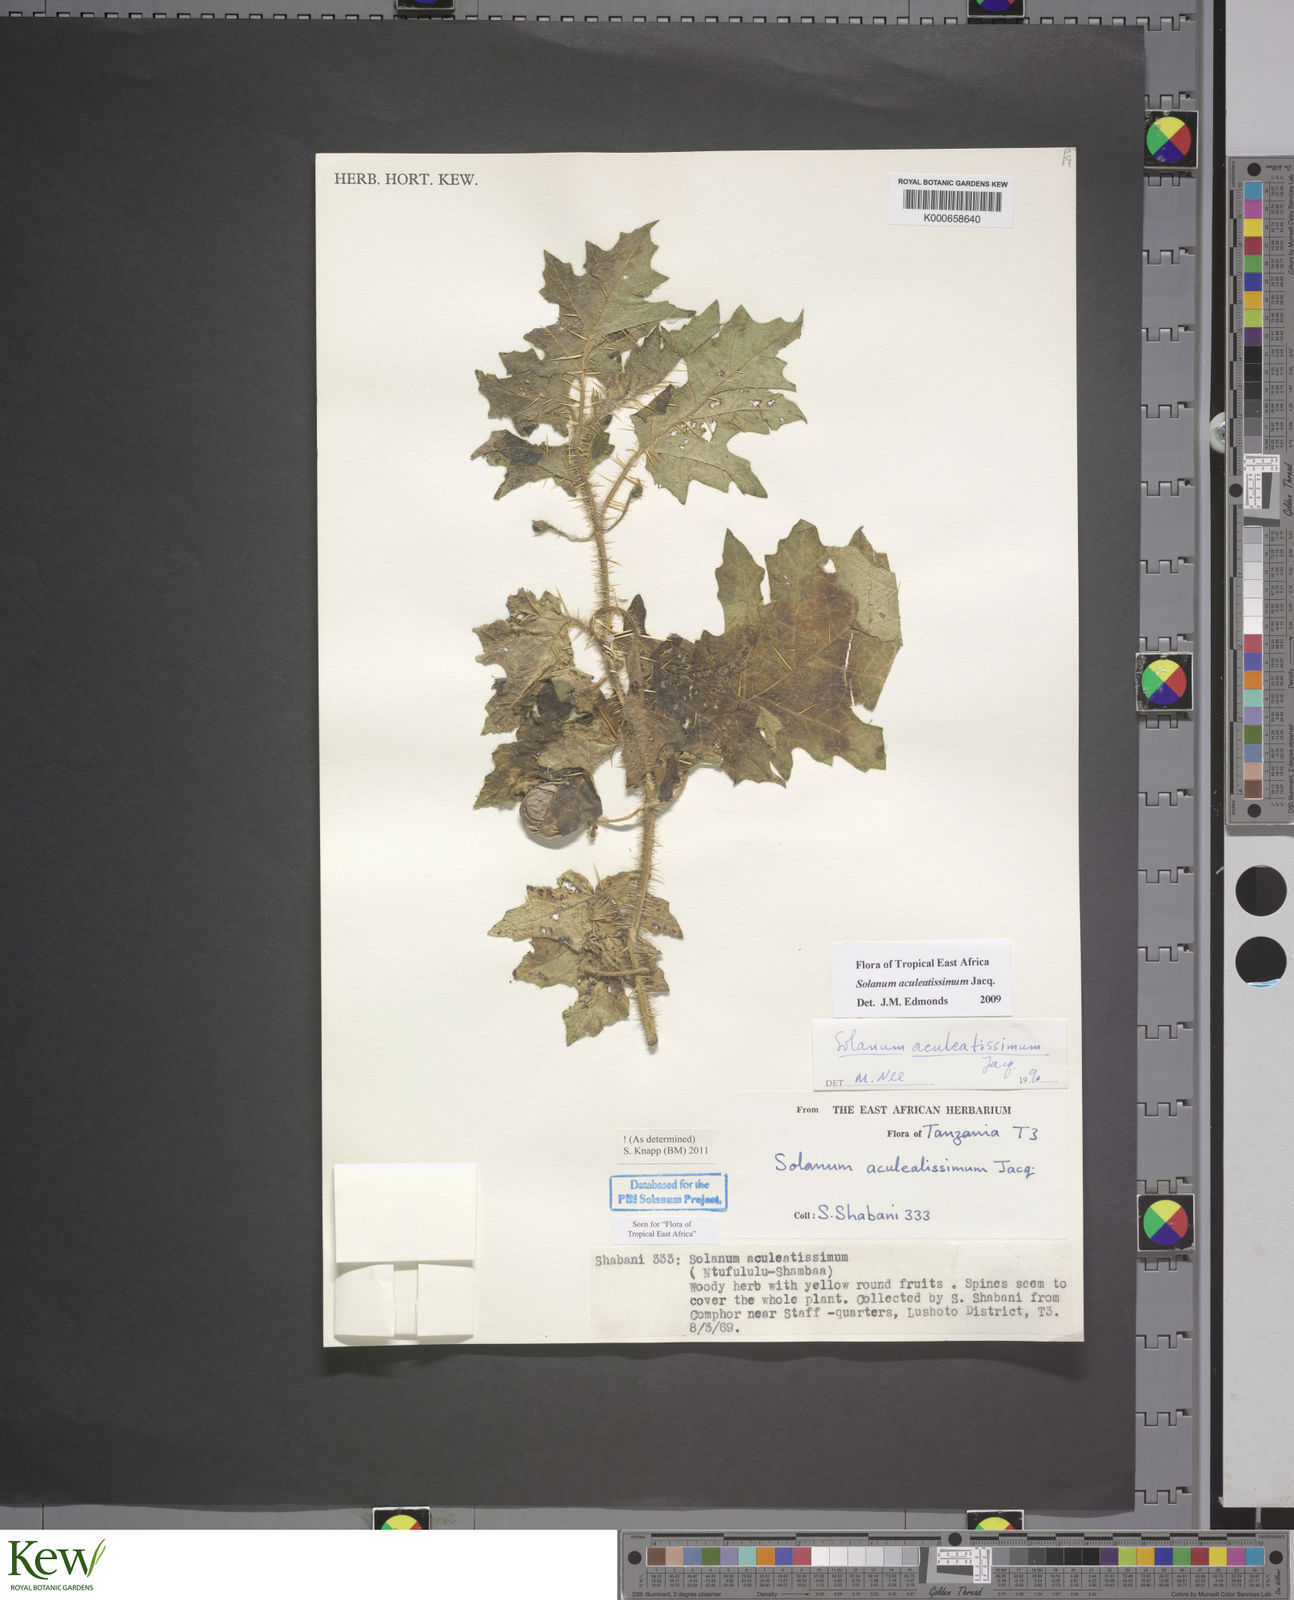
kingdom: Plantae
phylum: Tracheophyta
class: Magnoliopsida
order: Solanales
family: Solanaceae
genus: Solanum
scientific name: Solanum aculeatissimum
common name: Dutch eggplant
